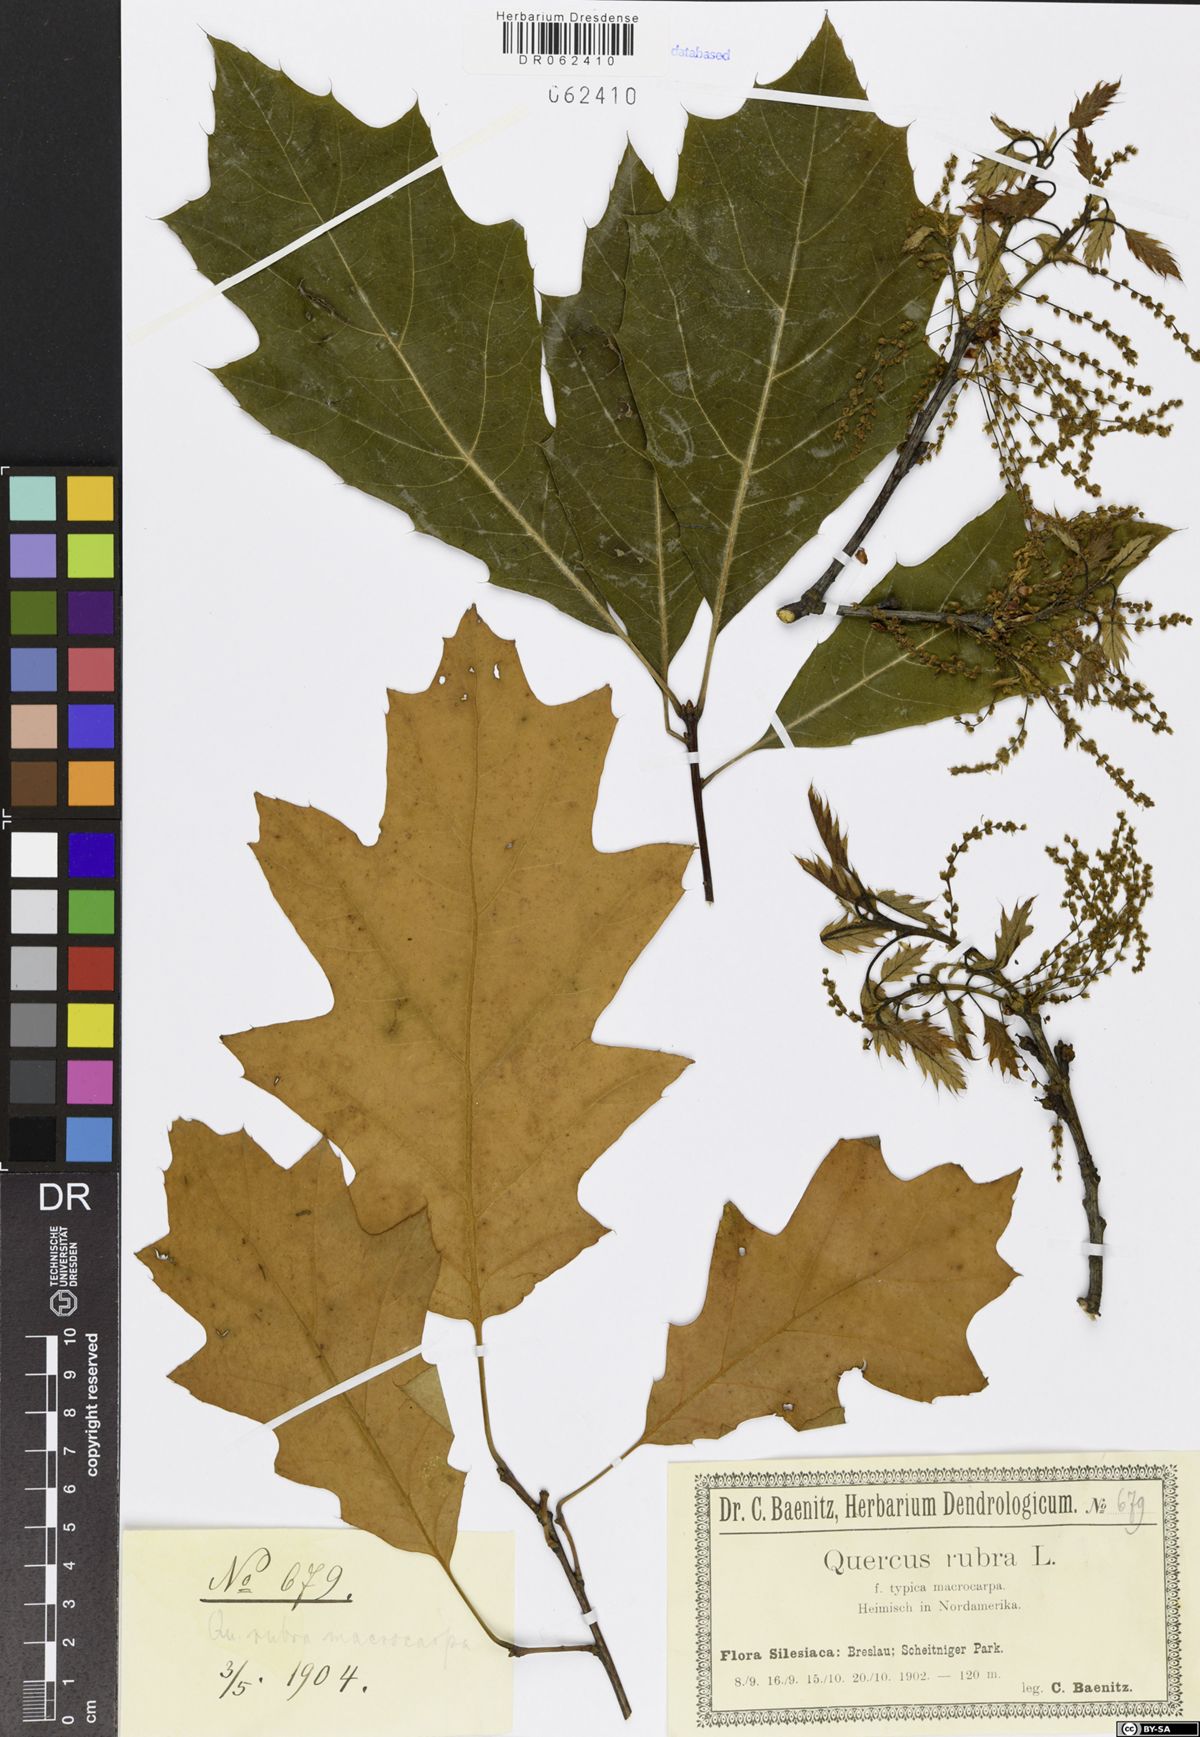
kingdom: Plantae
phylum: Tracheophyta
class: Magnoliopsida
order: Fagales
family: Fagaceae
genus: Quercus
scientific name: Quercus rubra
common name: Red oak
